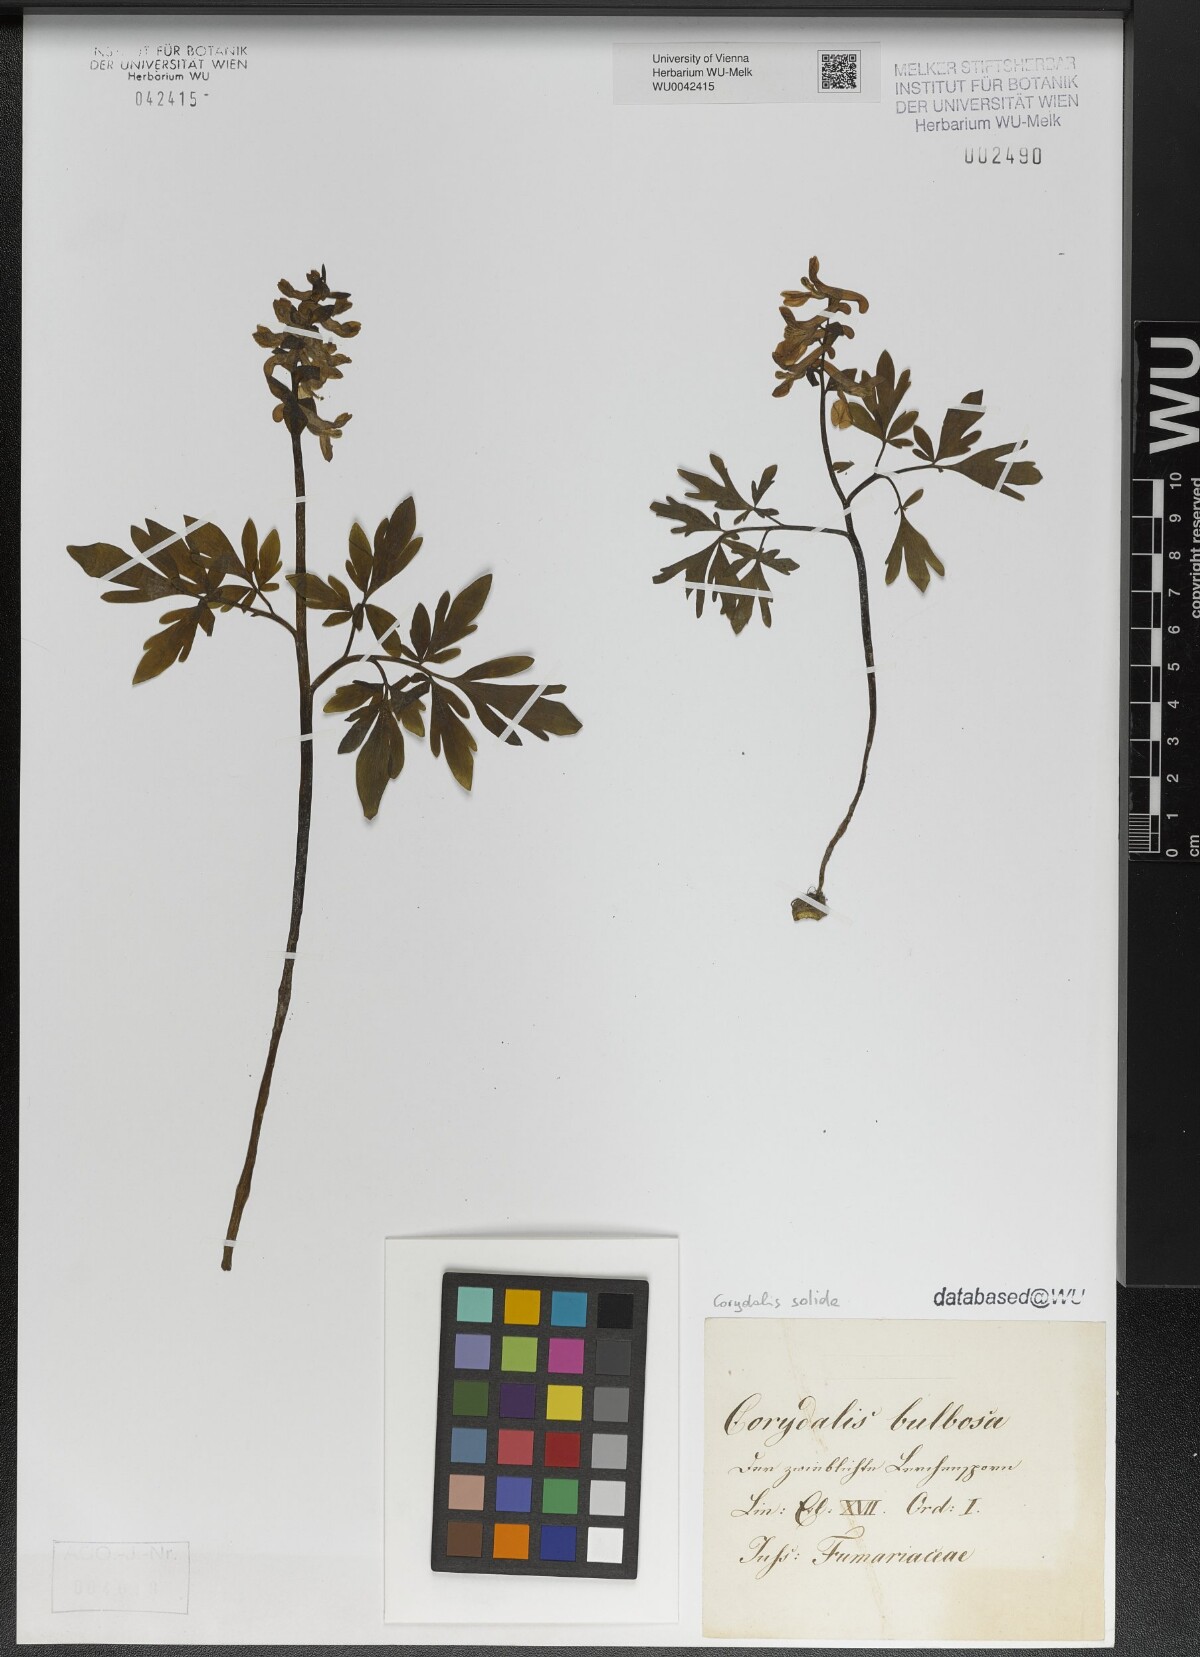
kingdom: Plantae
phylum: Tracheophyta
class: Magnoliopsida
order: Ranunculales
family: Papaveraceae
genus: Corydalis
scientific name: Corydalis solida
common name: Bird-in-a-bush
